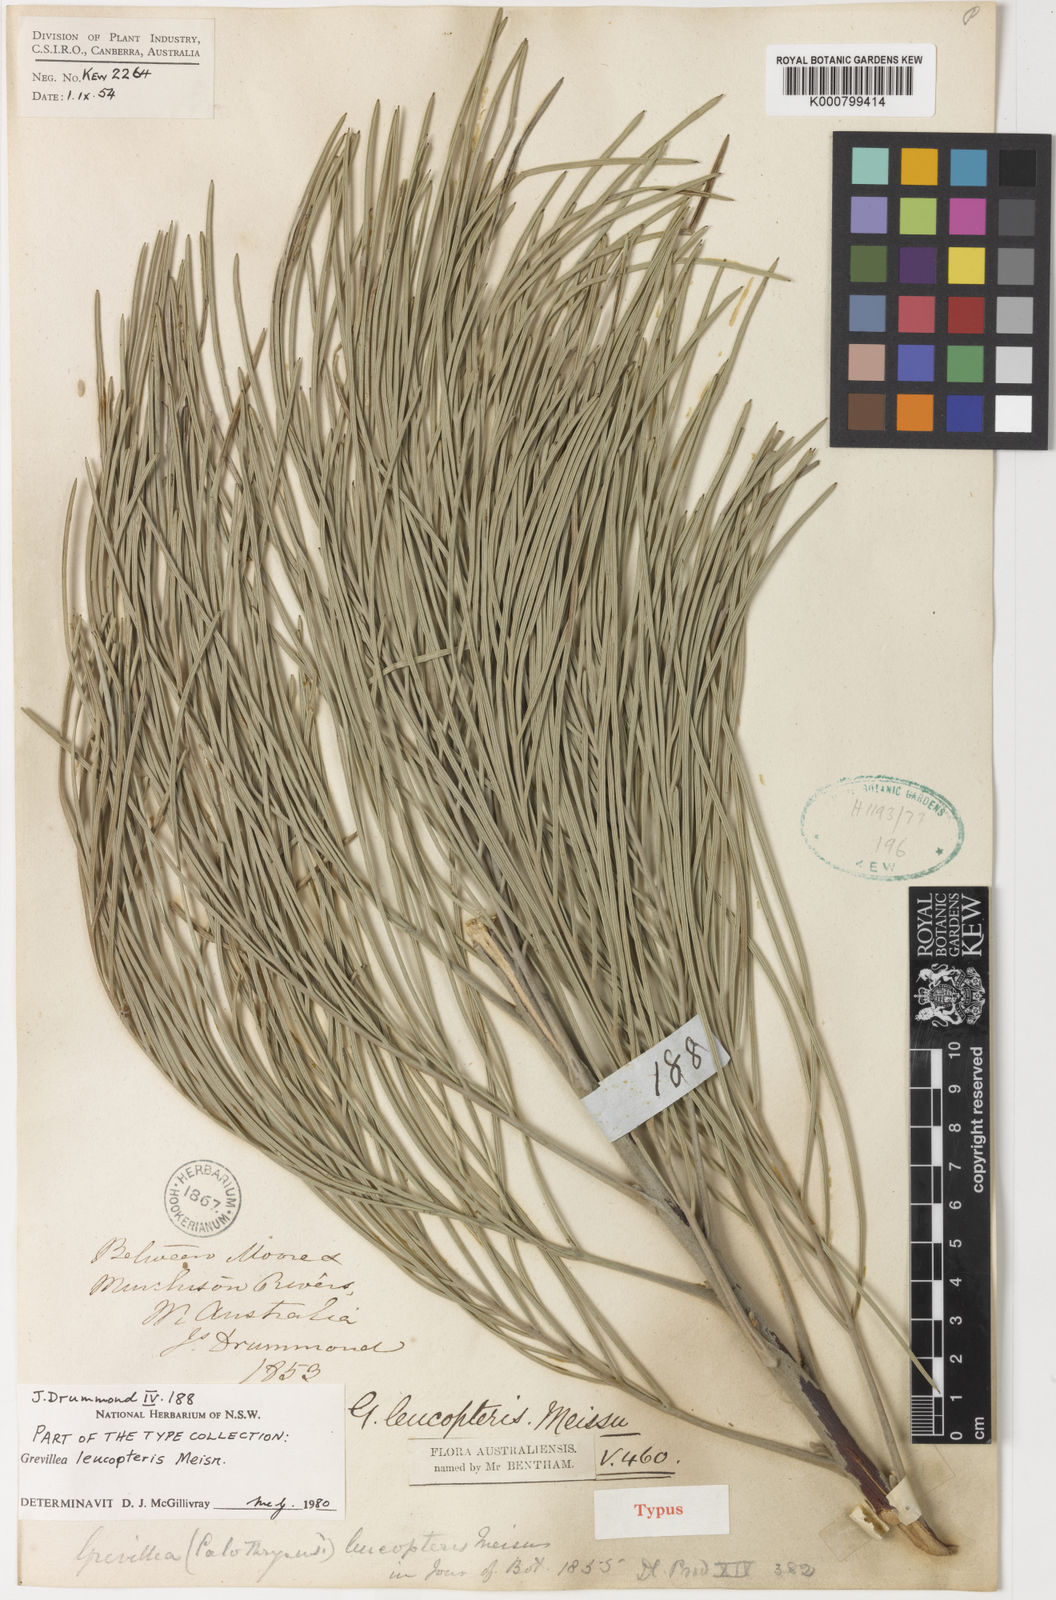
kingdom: Plantae
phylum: Tracheophyta
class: Magnoliopsida
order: Proteales
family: Proteaceae
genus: Grevillea
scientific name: Grevillea leucopteris
